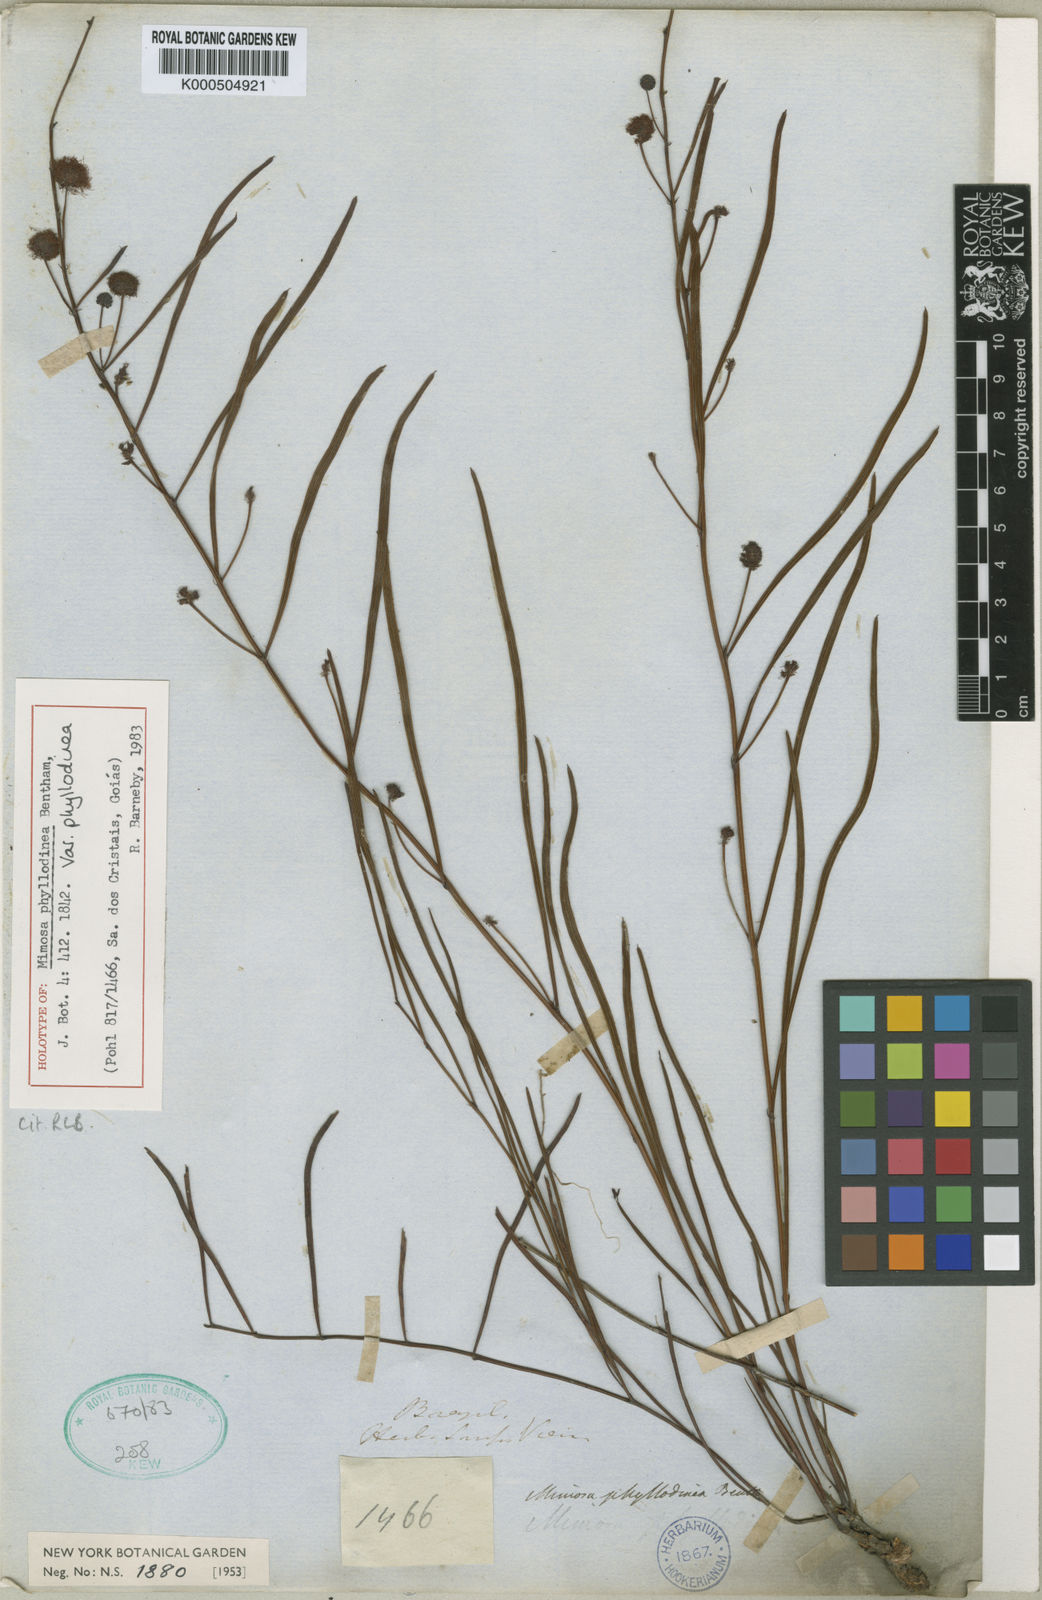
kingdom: Plantae
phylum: Tracheophyta
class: Magnoliopsida
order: Fabales
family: Fabaceae
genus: Mimosa
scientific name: Mimosa phyllodinea
